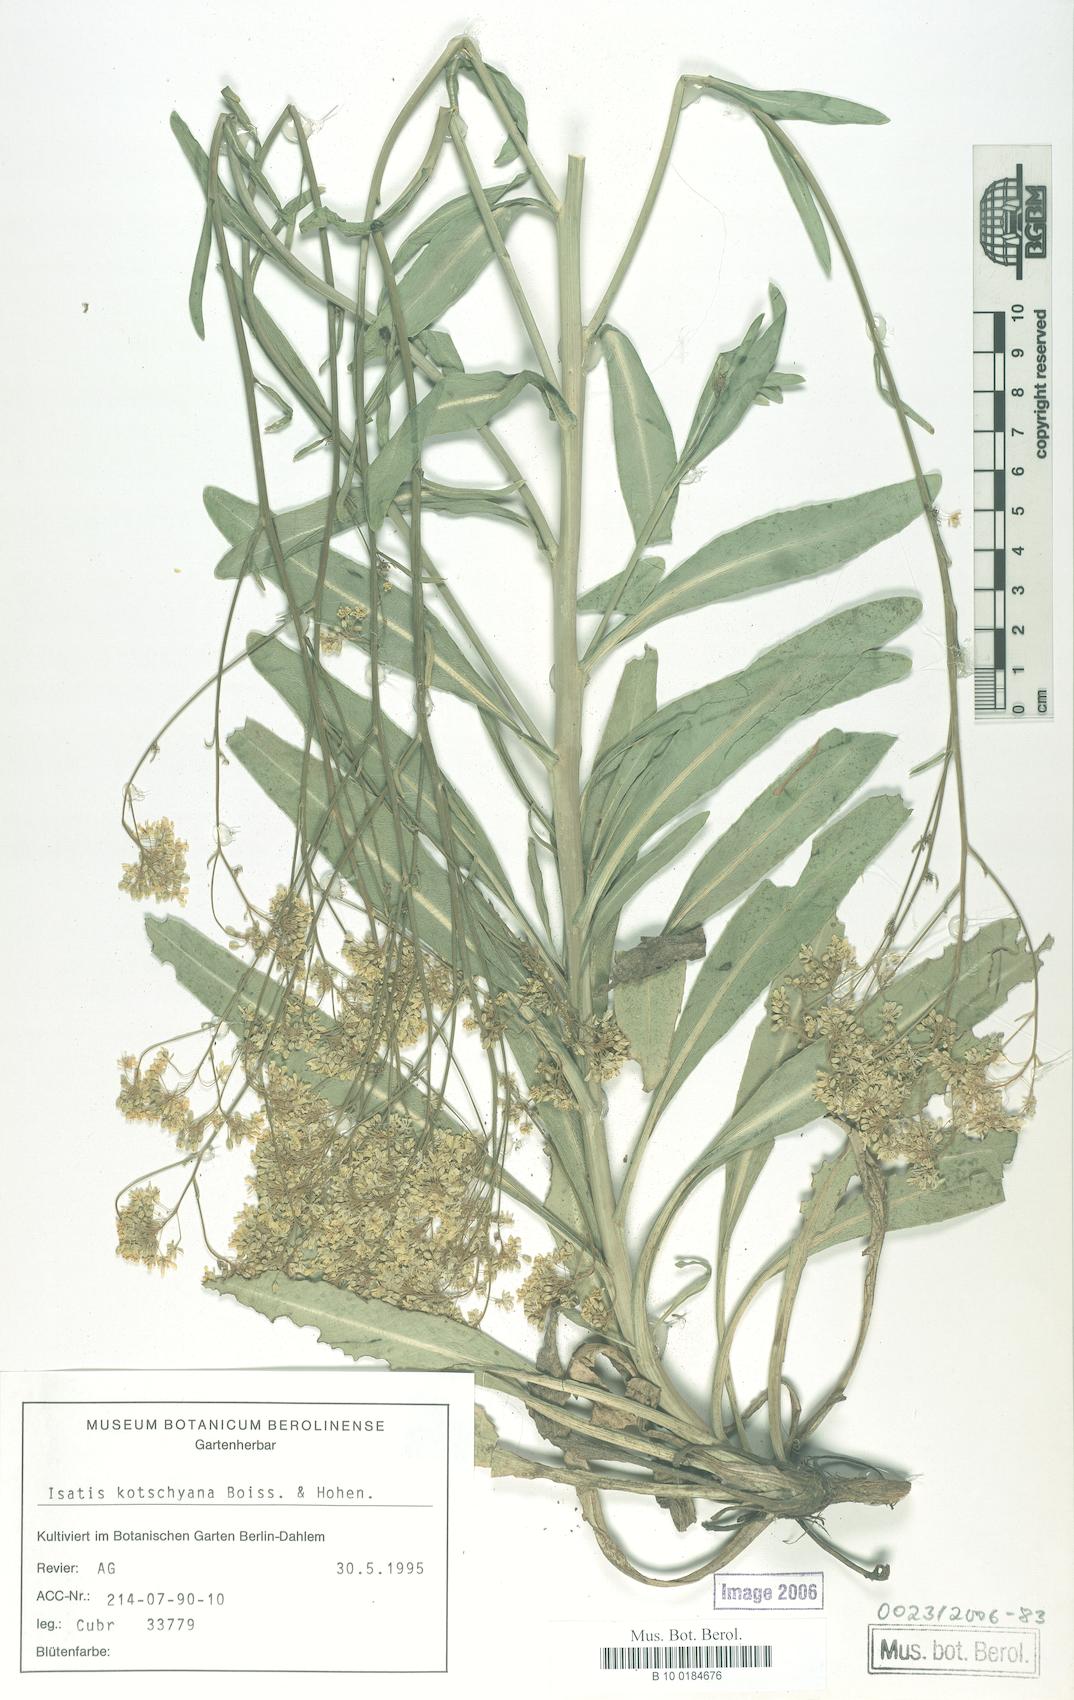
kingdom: Plantae
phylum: Tracheophyta
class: Magnoliopsida
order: Brassicales
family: Brassicaceae
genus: Isatis
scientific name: Isatis kotschyana
